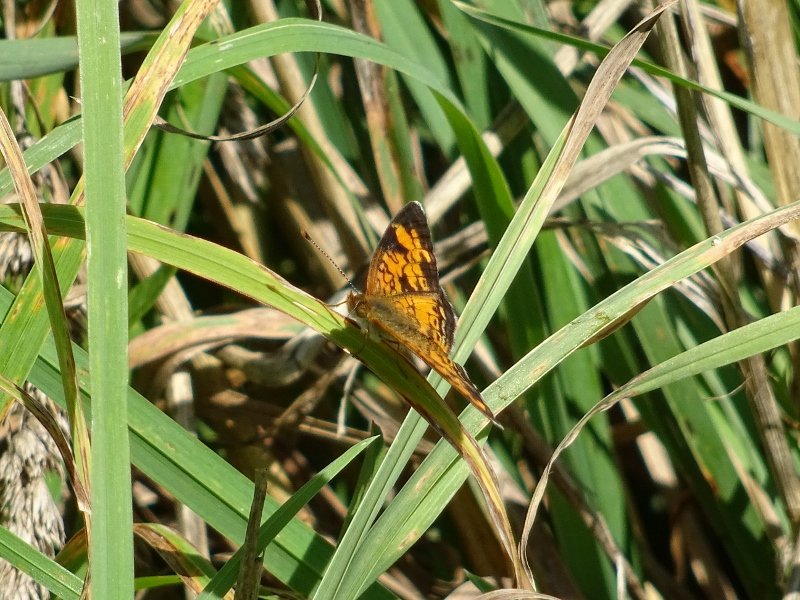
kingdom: Animalia
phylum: Arthropoda
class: Insecta
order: Lepidoptera
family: Nymphalidae
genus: Phyciodes
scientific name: Phyciodes tharos
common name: Northern Crescent
